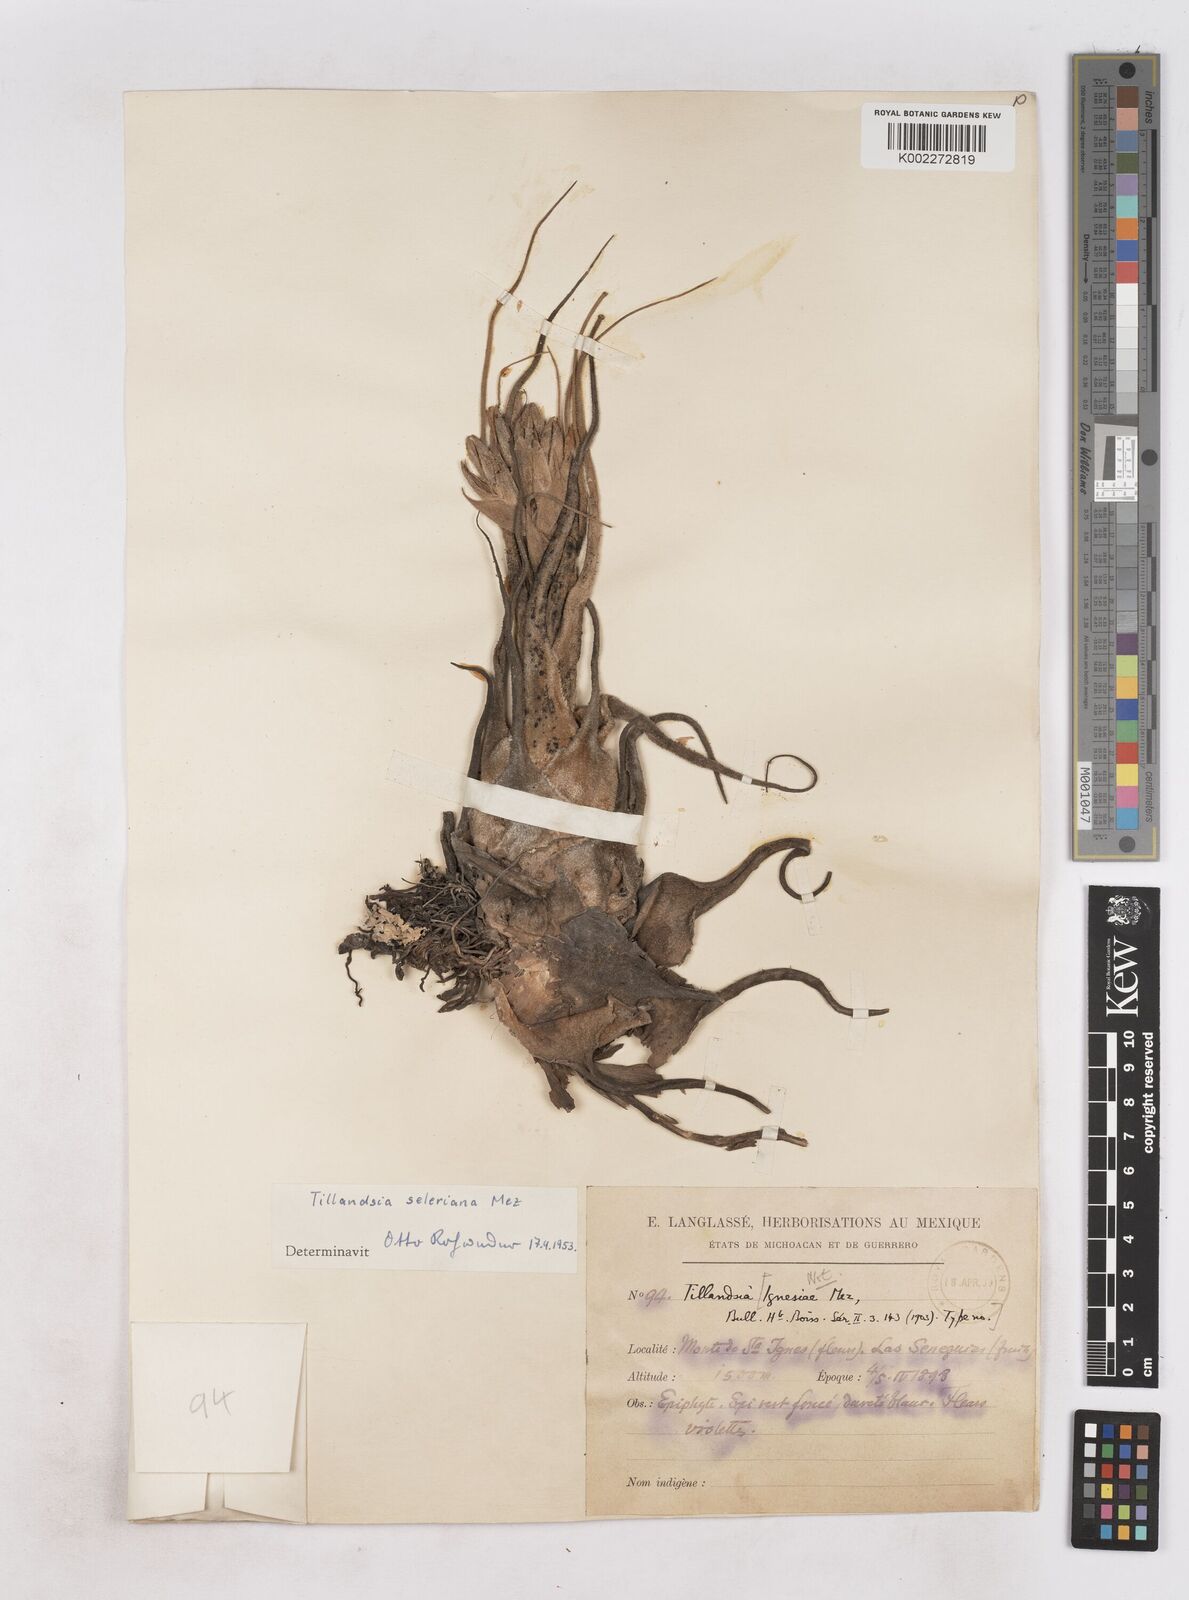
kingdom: Plantae
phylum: Tracheophyta
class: Liliopsida
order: Poales
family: Bromeliaceae
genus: Tillandsia
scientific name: Tillandsia seleriana
